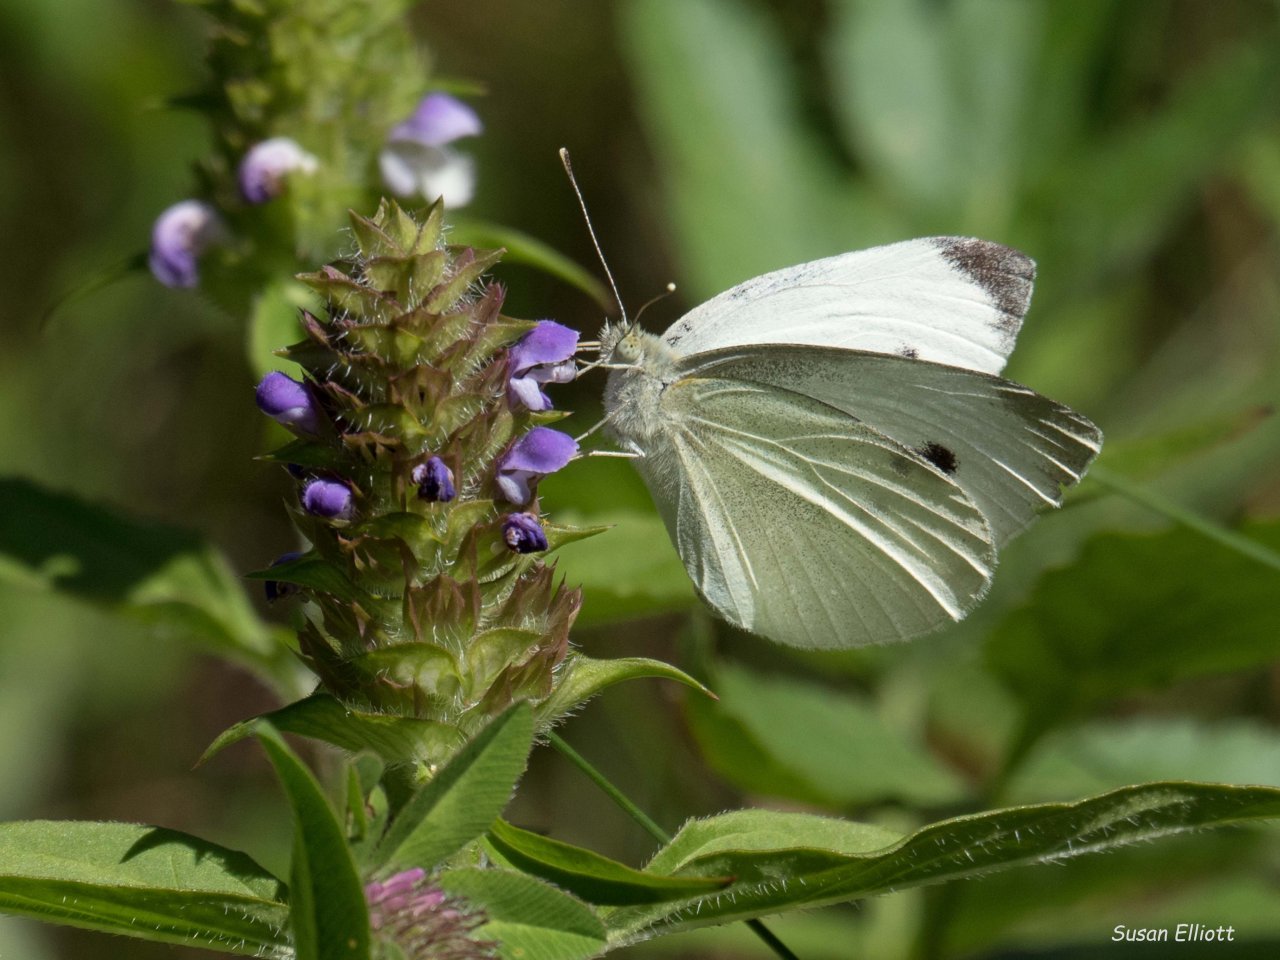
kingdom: Animalia
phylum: Arthropoda
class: Insecta
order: Lepidoptera
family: Pieridae
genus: Pieris
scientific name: Pieris rapae
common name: Cabbage White
